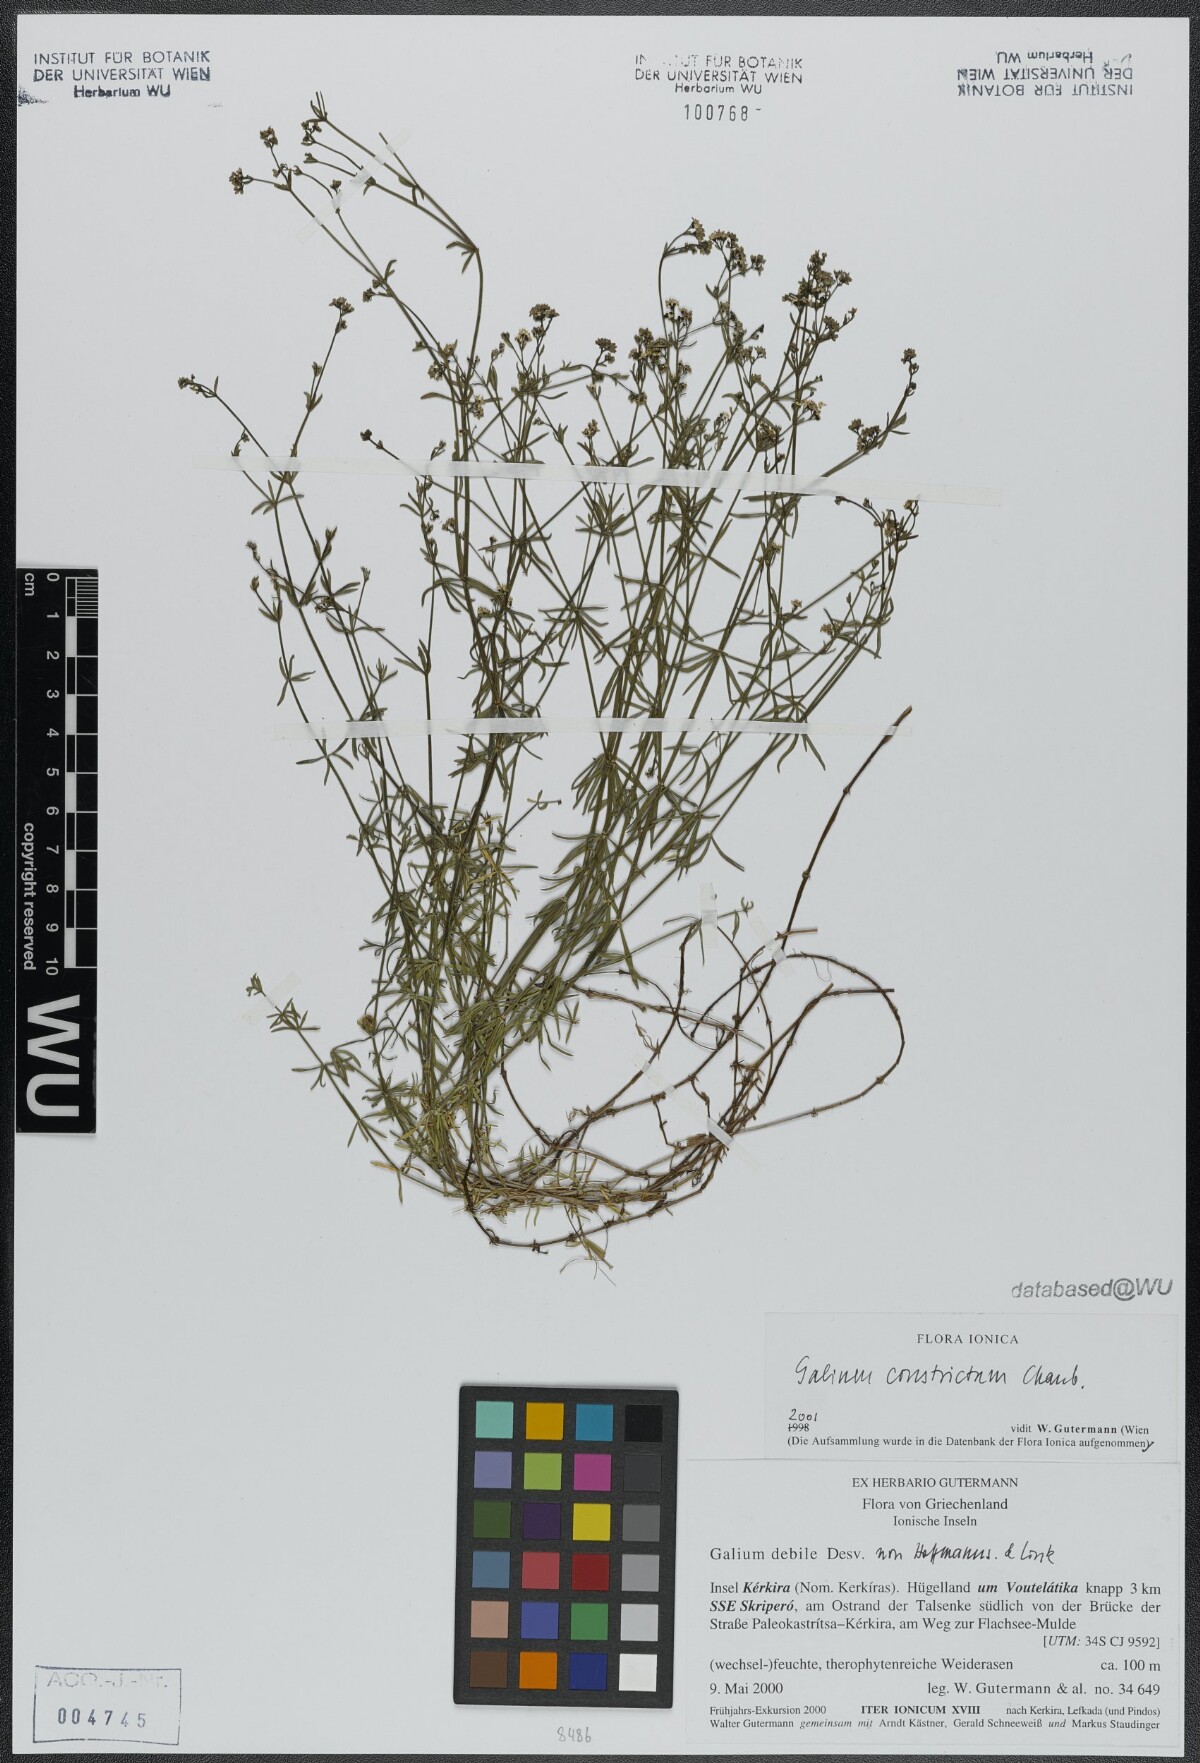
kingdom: Plantae
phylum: Tracheophyta
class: Magnoliopsida
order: Gentianales
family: Rubiaceae
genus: Galium
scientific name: Galium debile
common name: Slender marsh-bedstraw
